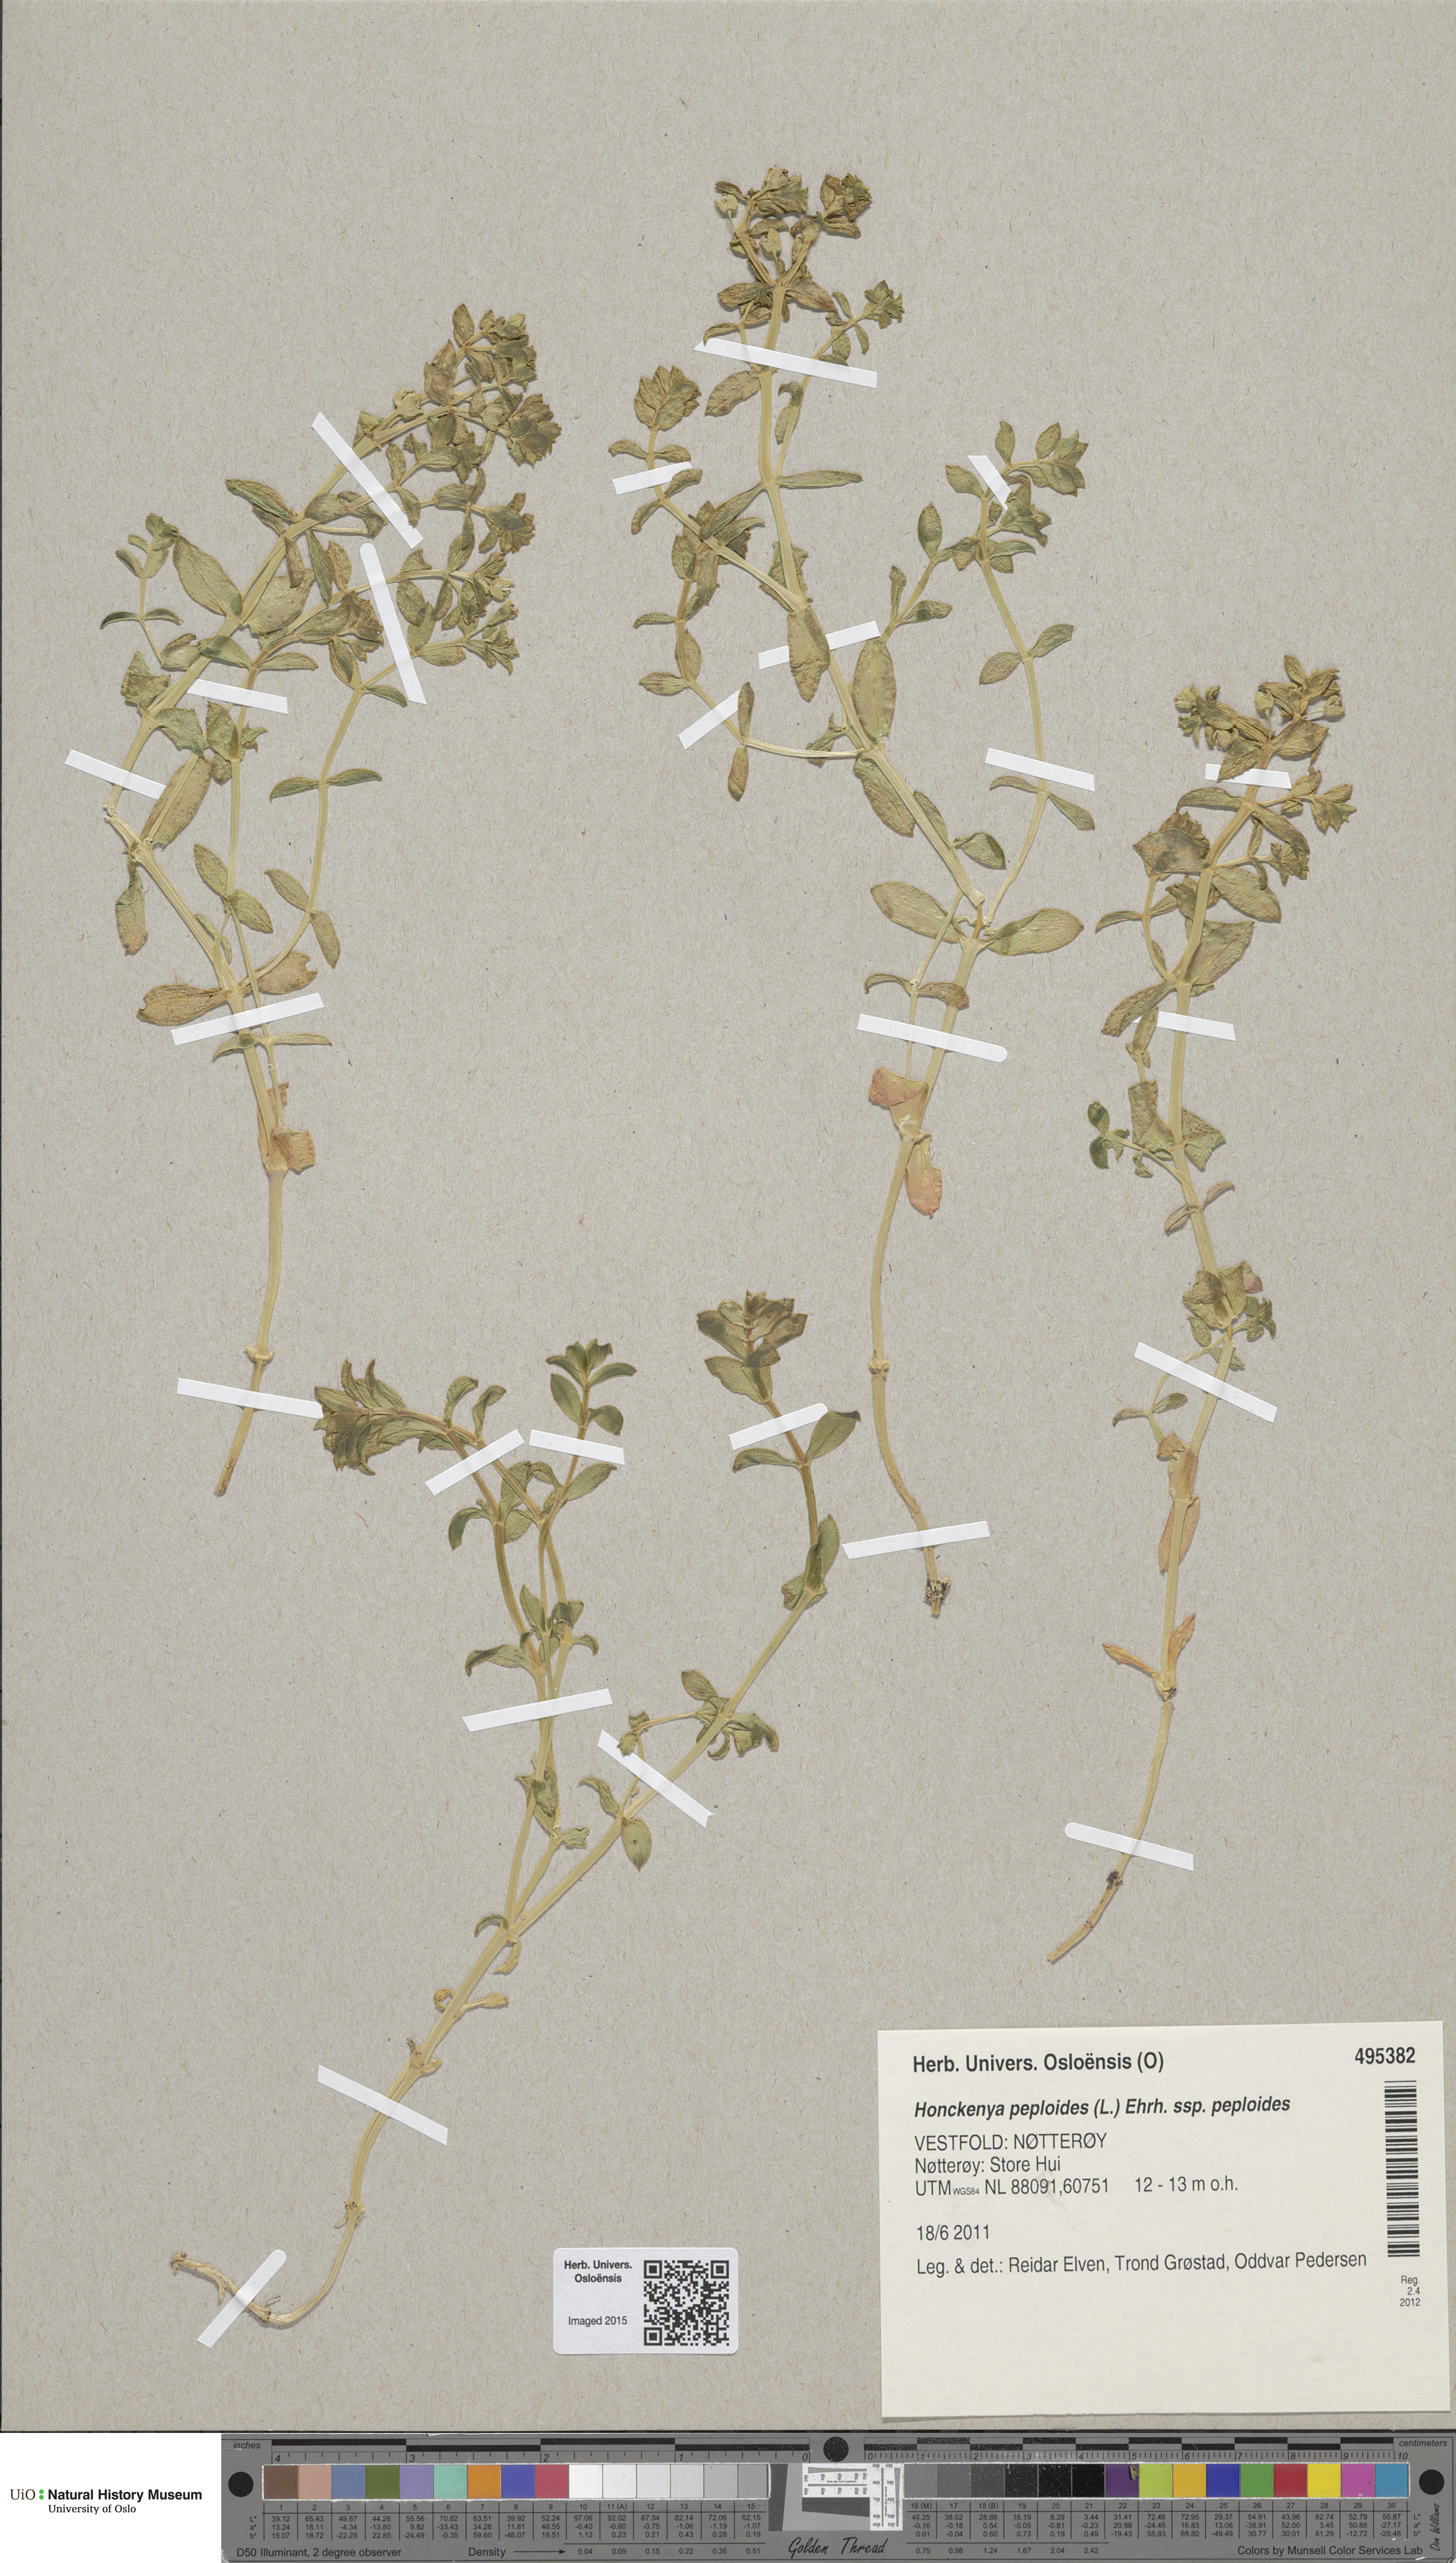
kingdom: Plantae
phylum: Tracheophyta
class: Magnoliopsida
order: Caryophyllales
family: Caryophyllaceae
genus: Honckenya
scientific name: Honckenya peploides
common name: Sea sandwort
